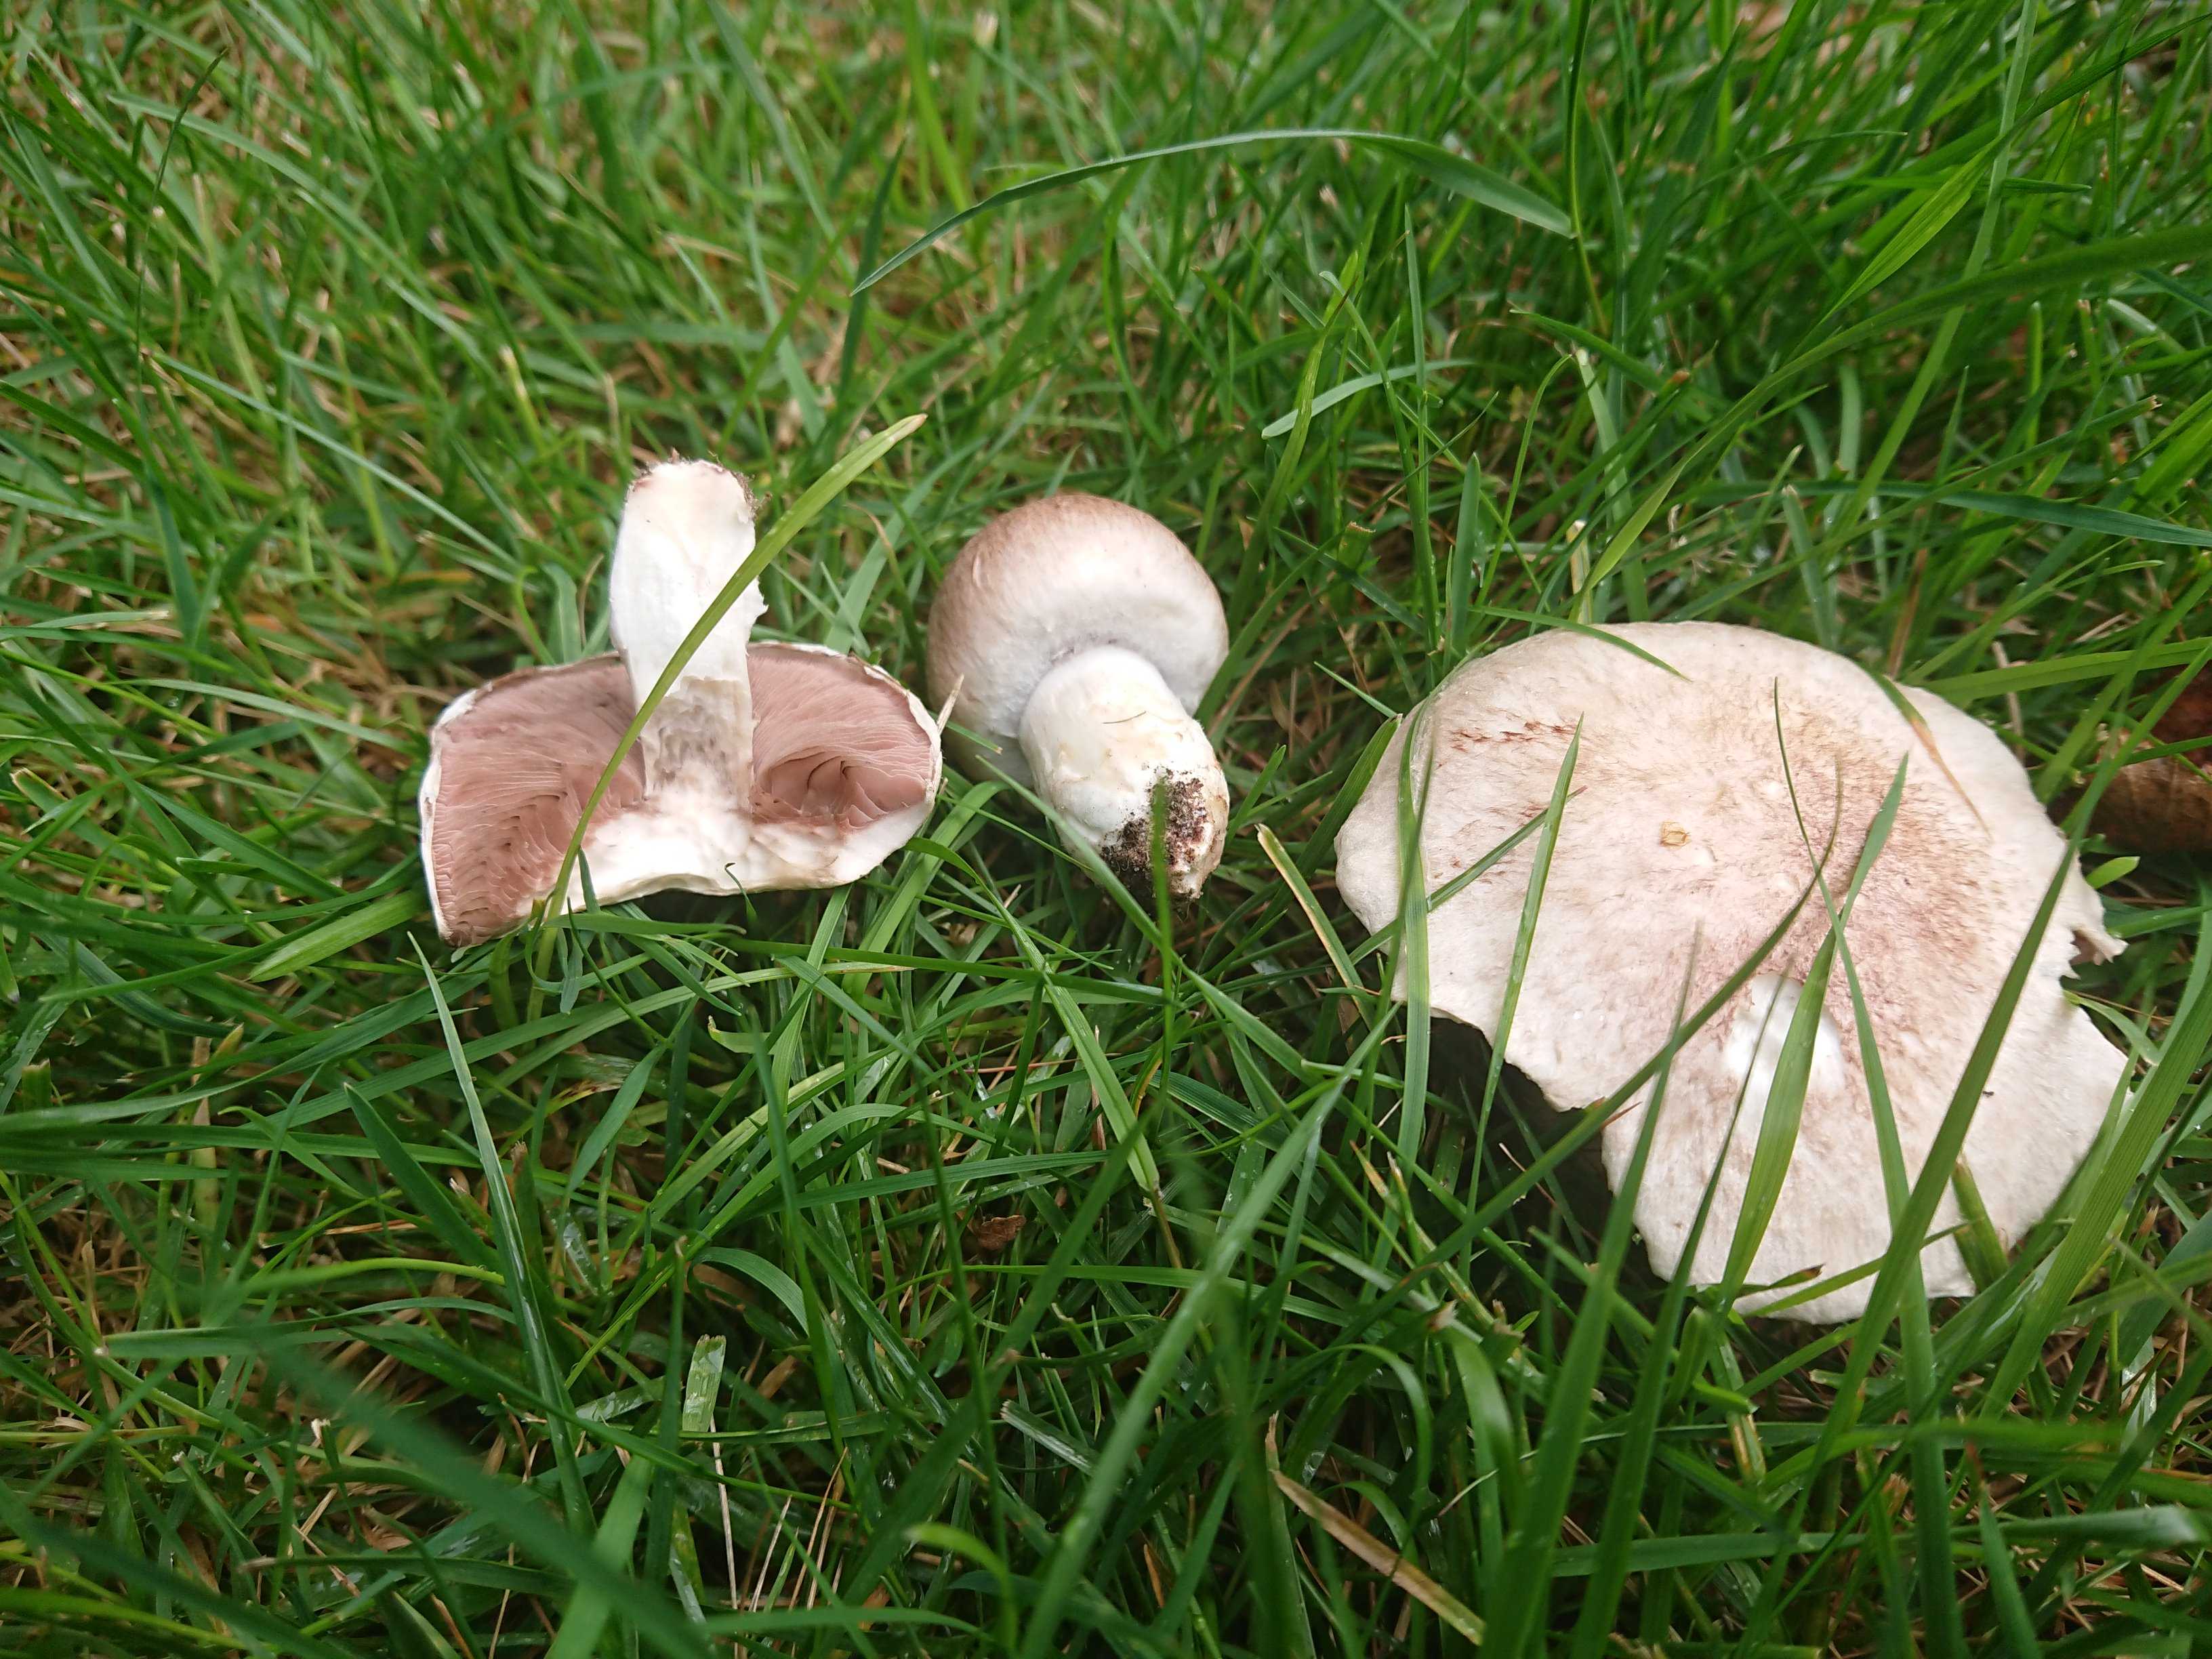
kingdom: Fungi
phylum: Basidiomycota
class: Agaricomycetes
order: Agaricales
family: Agaricaceae
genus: Agaricus
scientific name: Agaricus campestris
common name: mark-champignon
